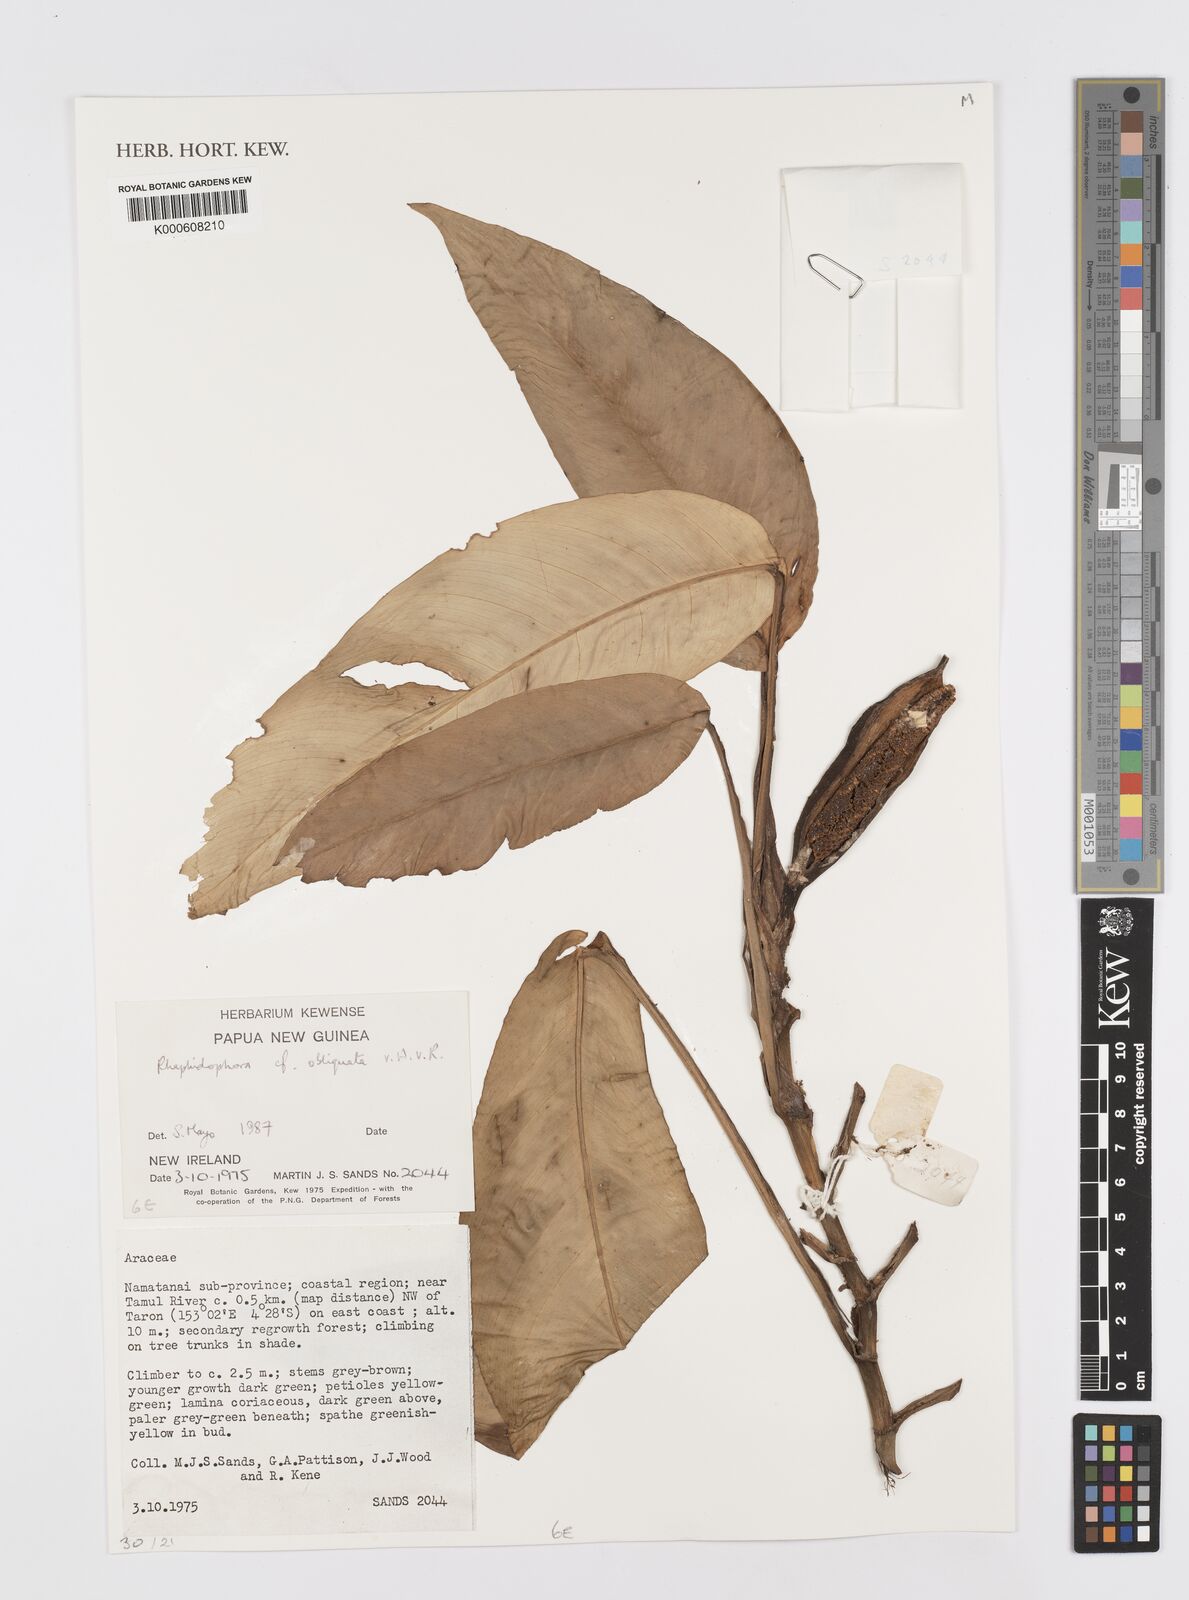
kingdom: Plantae
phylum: Tracheophyta
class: Liliopsida
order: Alismatales
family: Araceae
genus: Rhaphidophora
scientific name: Rhaphidophora schlechteri
